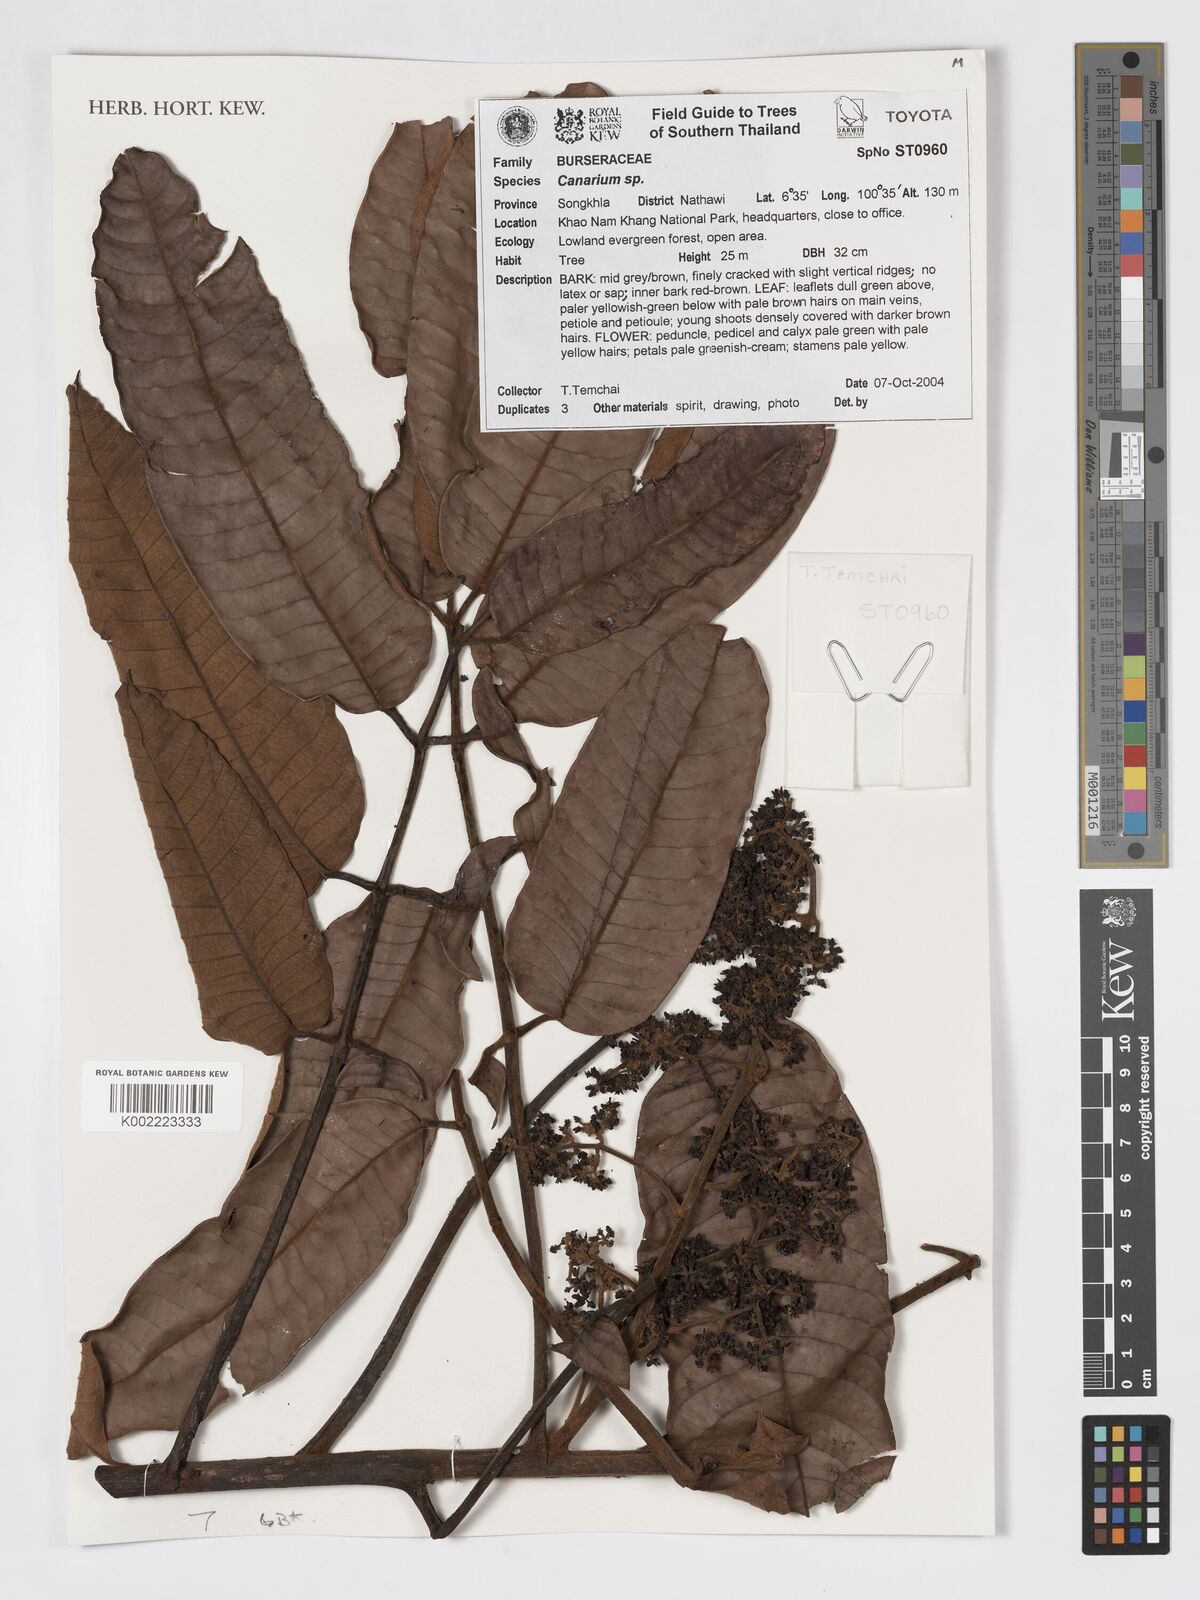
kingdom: Plantae
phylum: Tracheophyta
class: Magnoliopsida
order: Sapindales
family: Burseraceae
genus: Canarium
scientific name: Canarium
